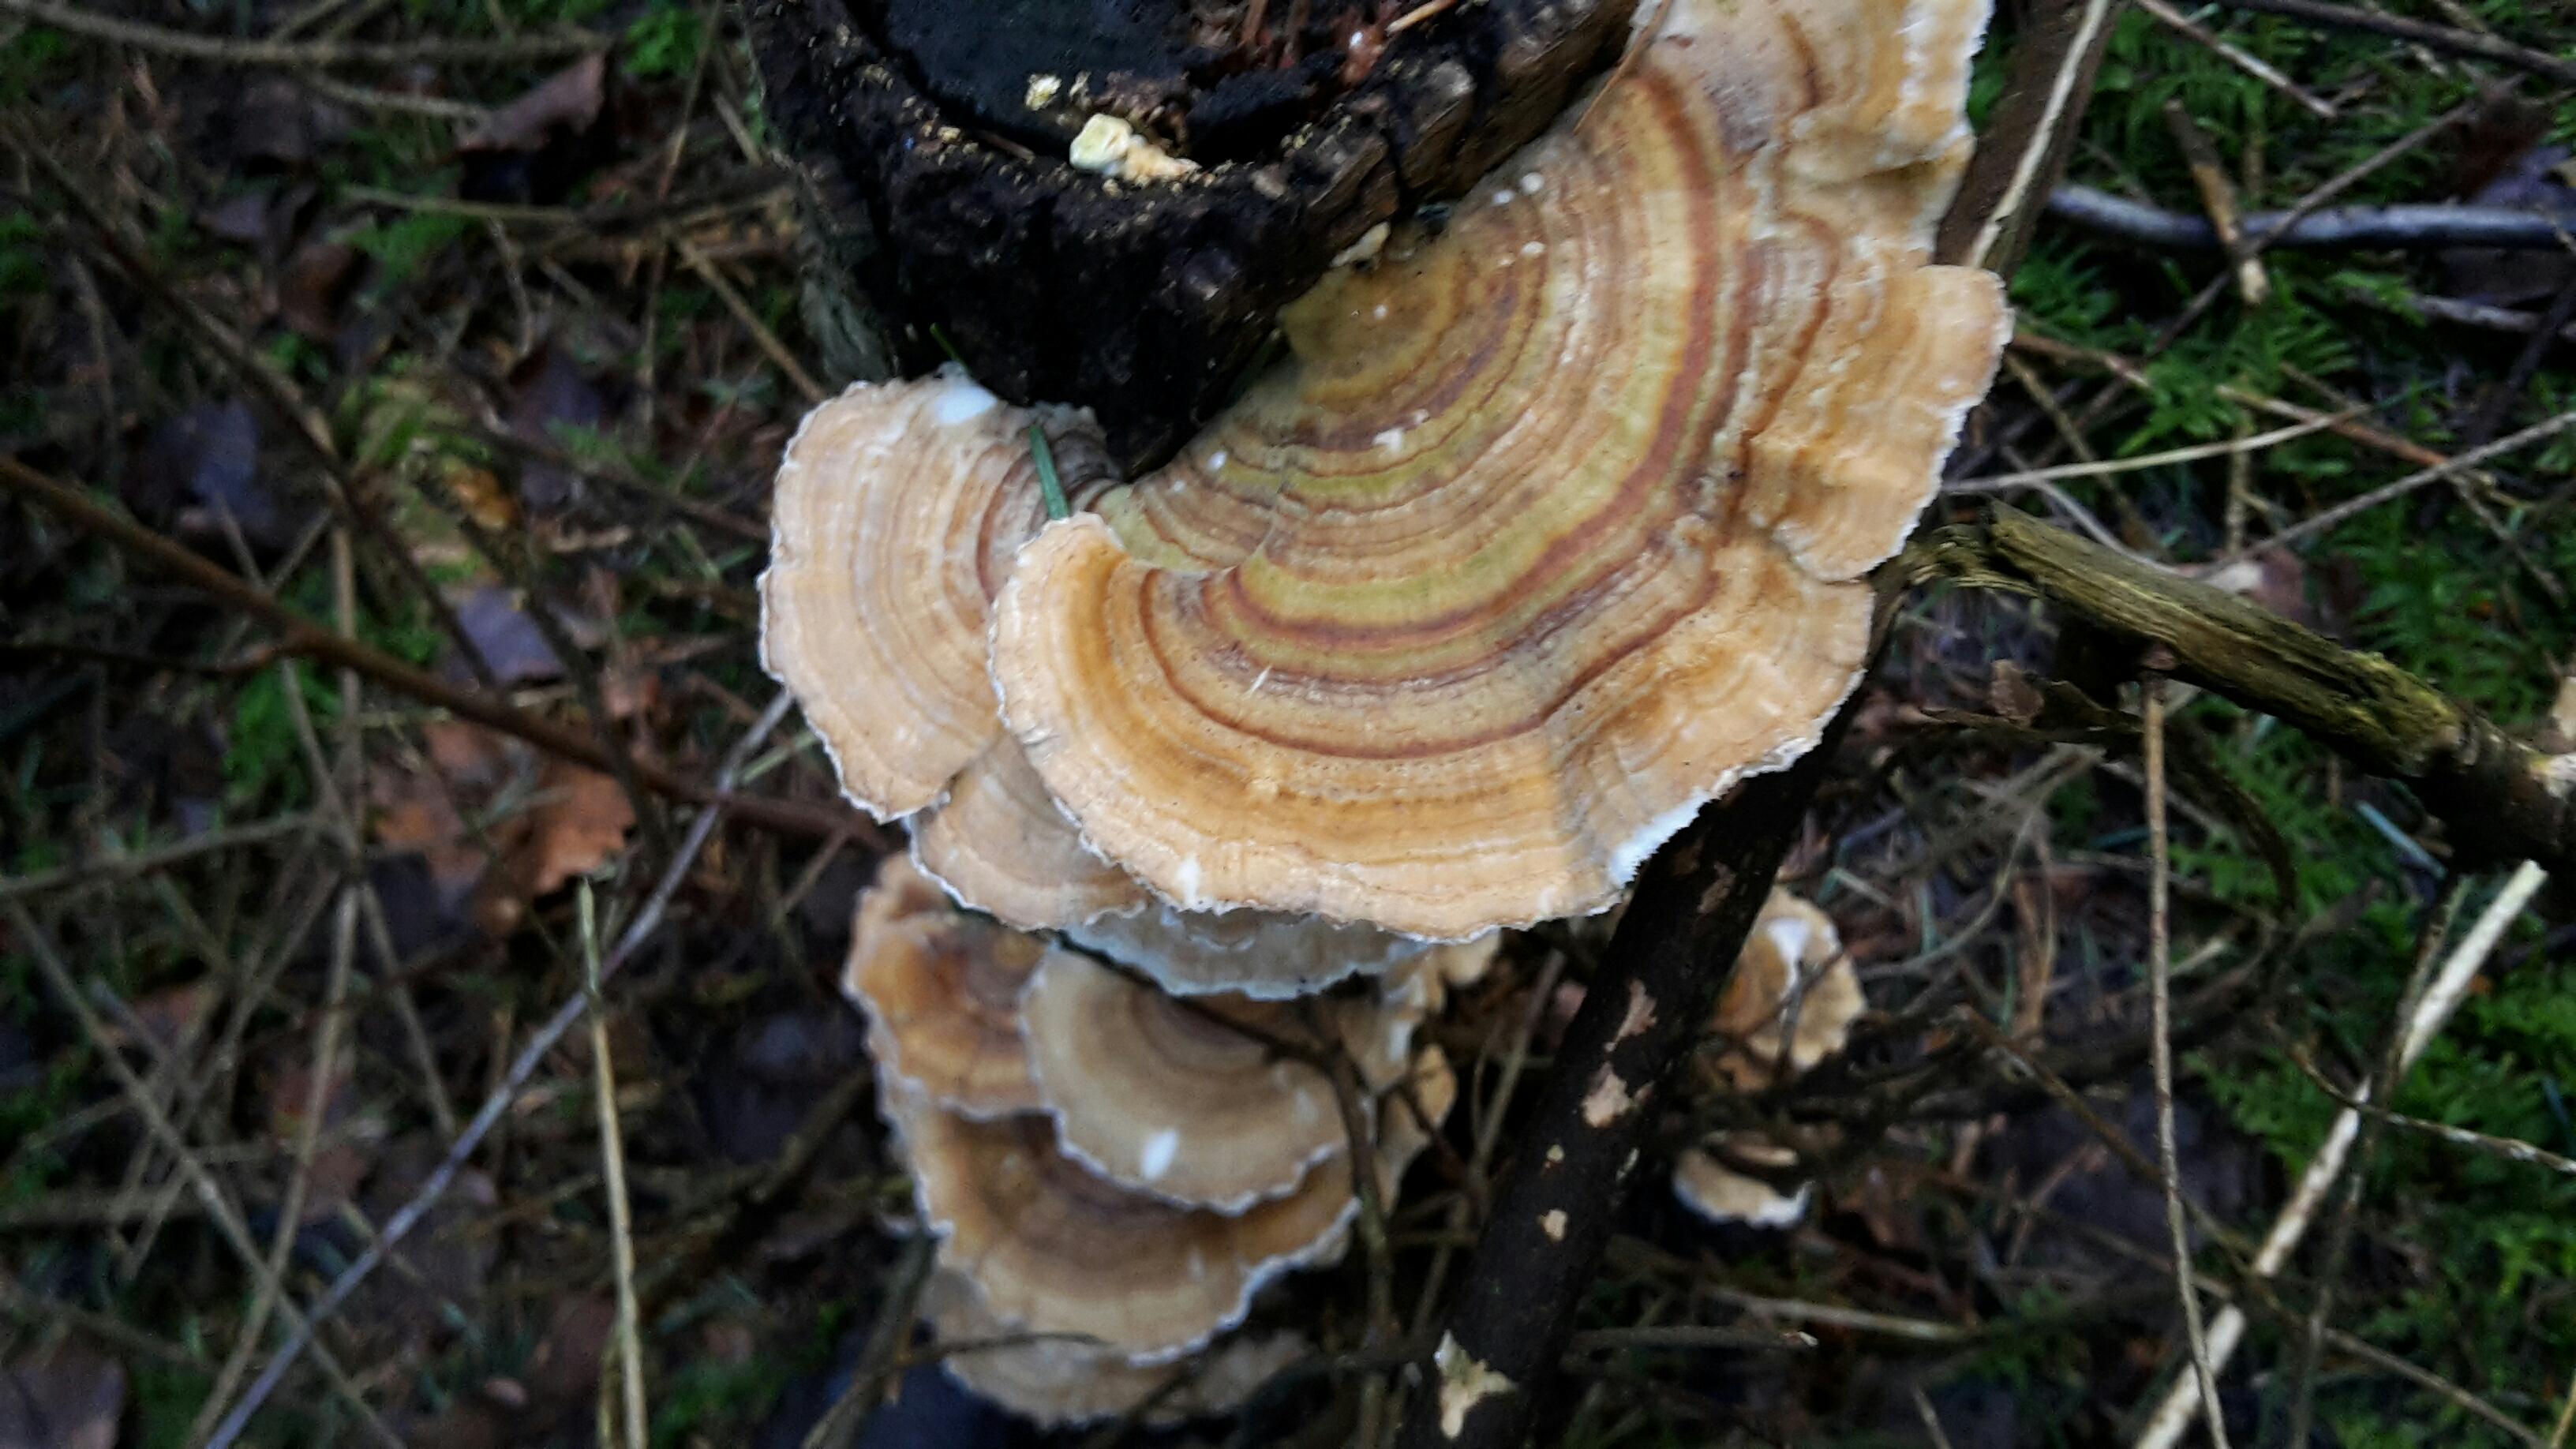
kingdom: Fungi
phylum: Basidiomycota
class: Agaricomycetes
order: Polyporales
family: Polyporaceae
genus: Trametes
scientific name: Trametes versicolor
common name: broget læderporesvamp
